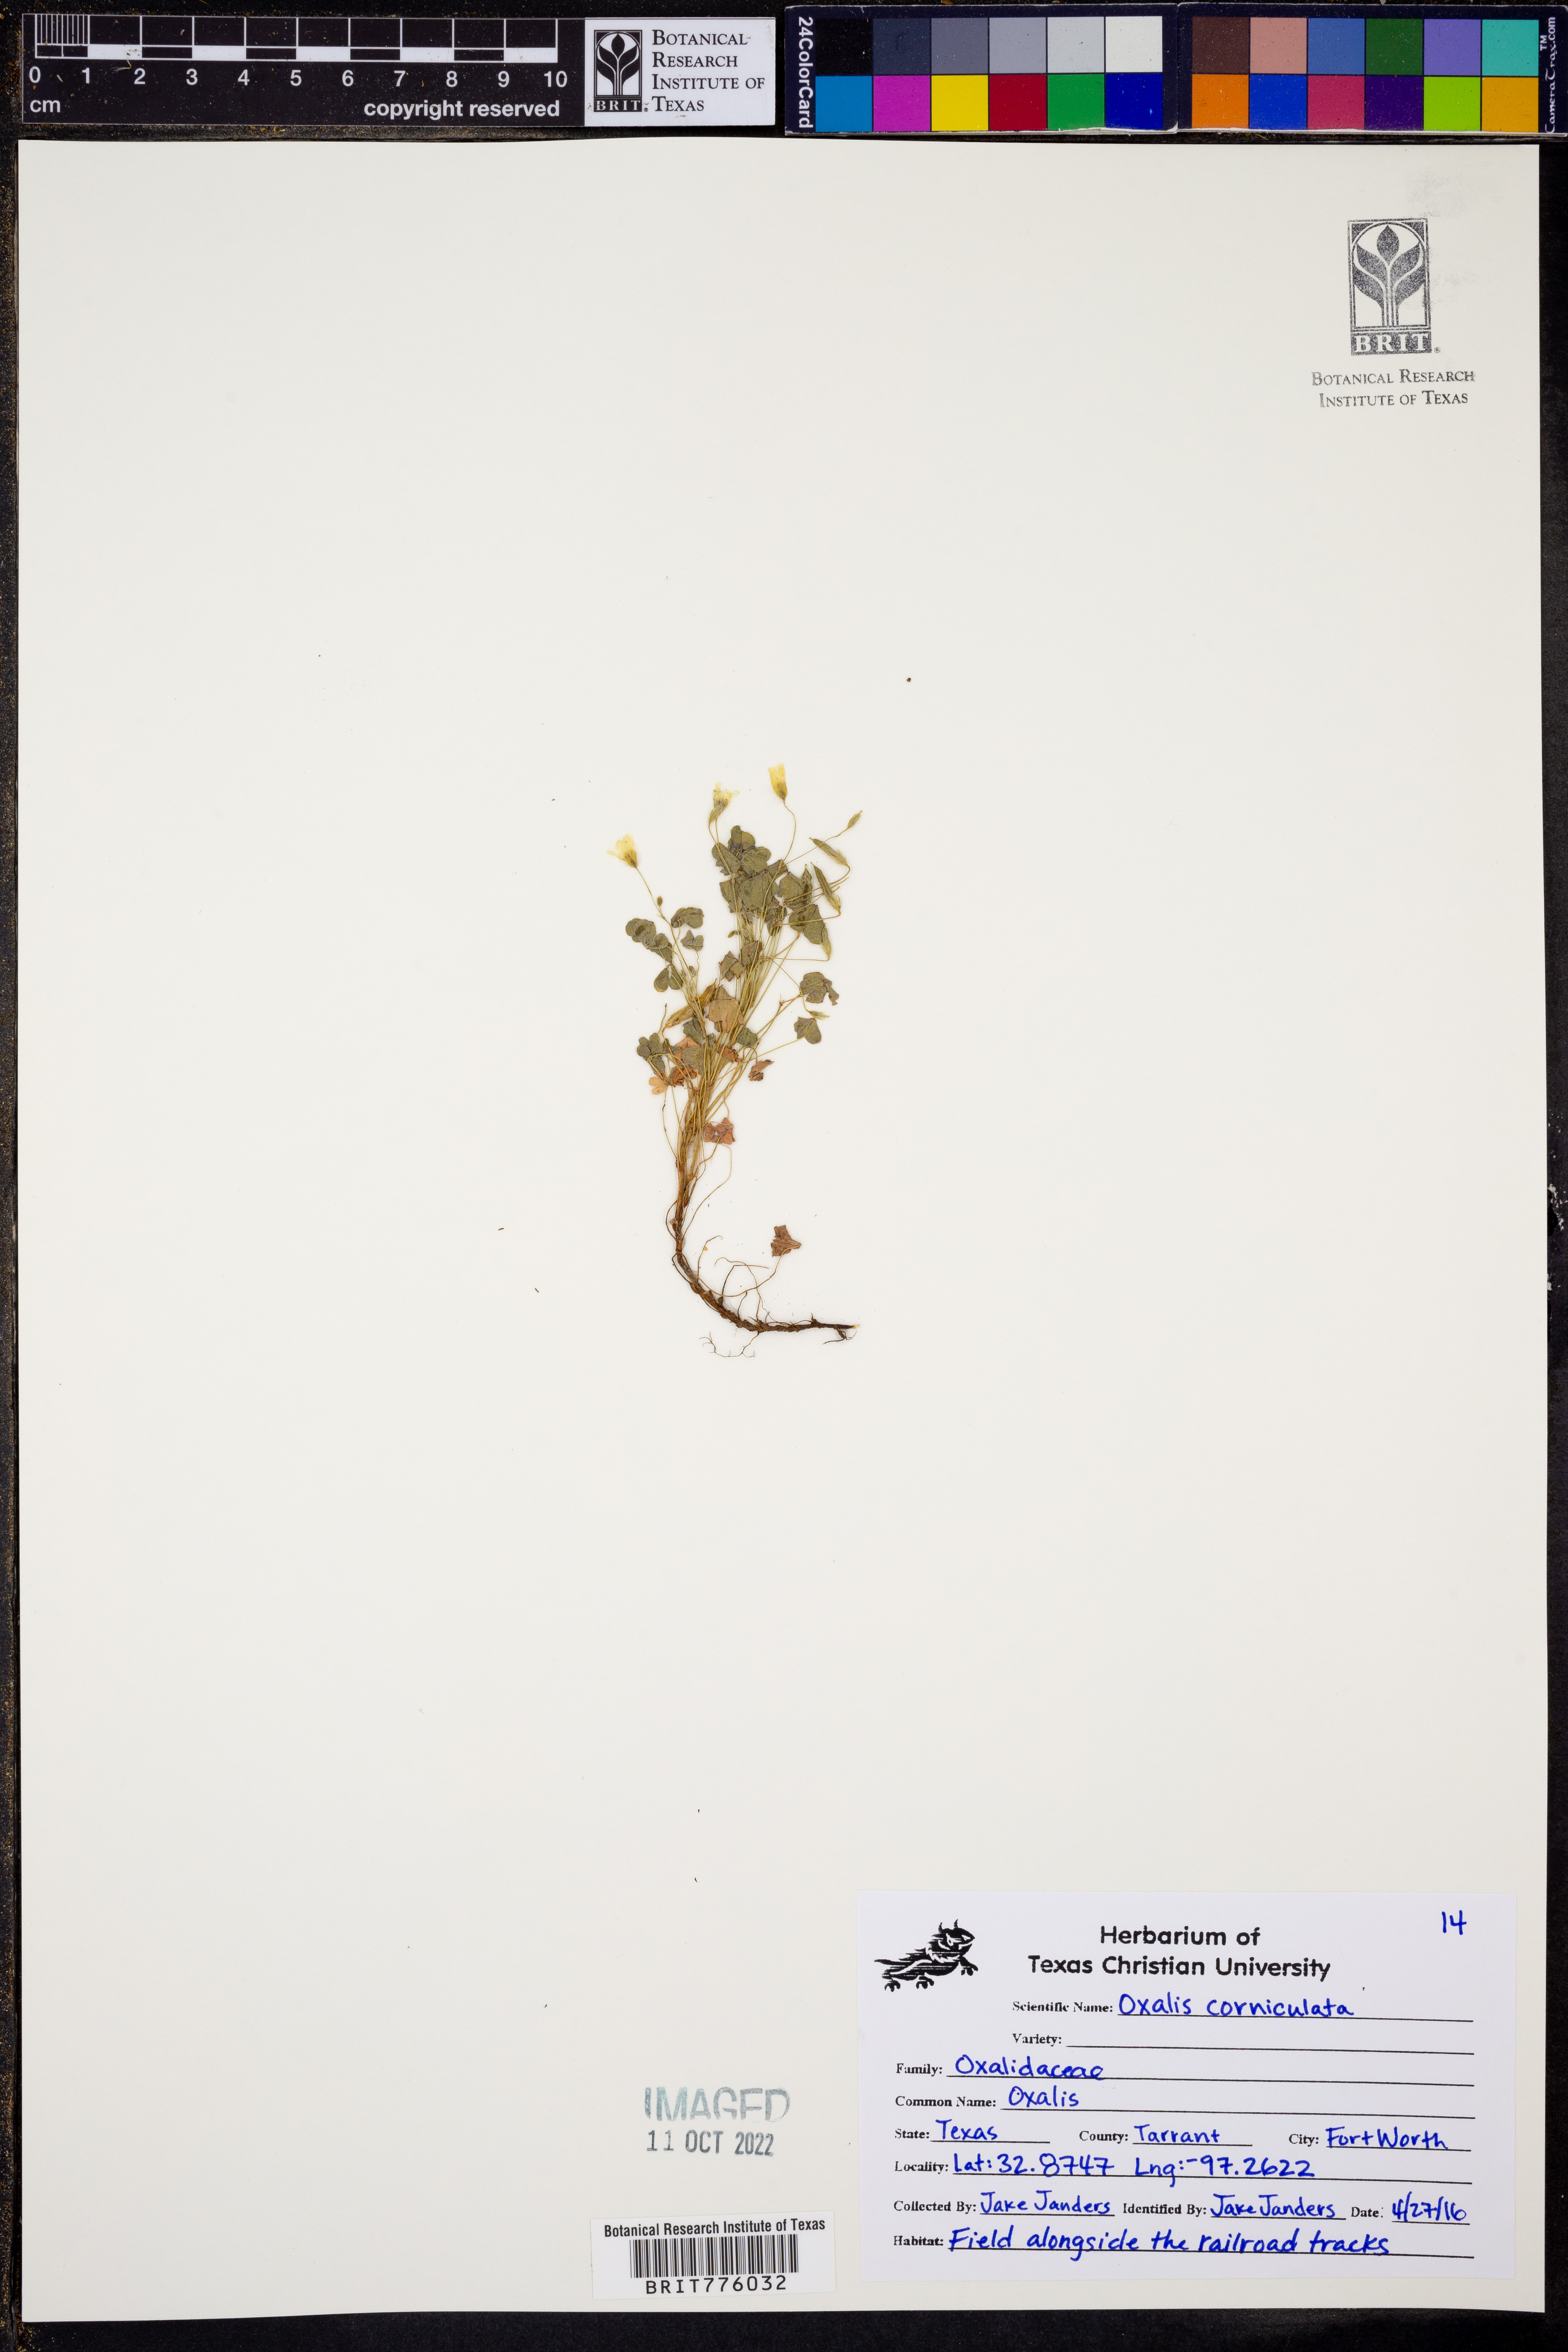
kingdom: Plantae
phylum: Tracheophyta
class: Magnoliopsida
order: Oxalidales
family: Oxalidaceae
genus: Oxalis
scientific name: Oxalis corniculata
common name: Procumbent yellow-sorrel
